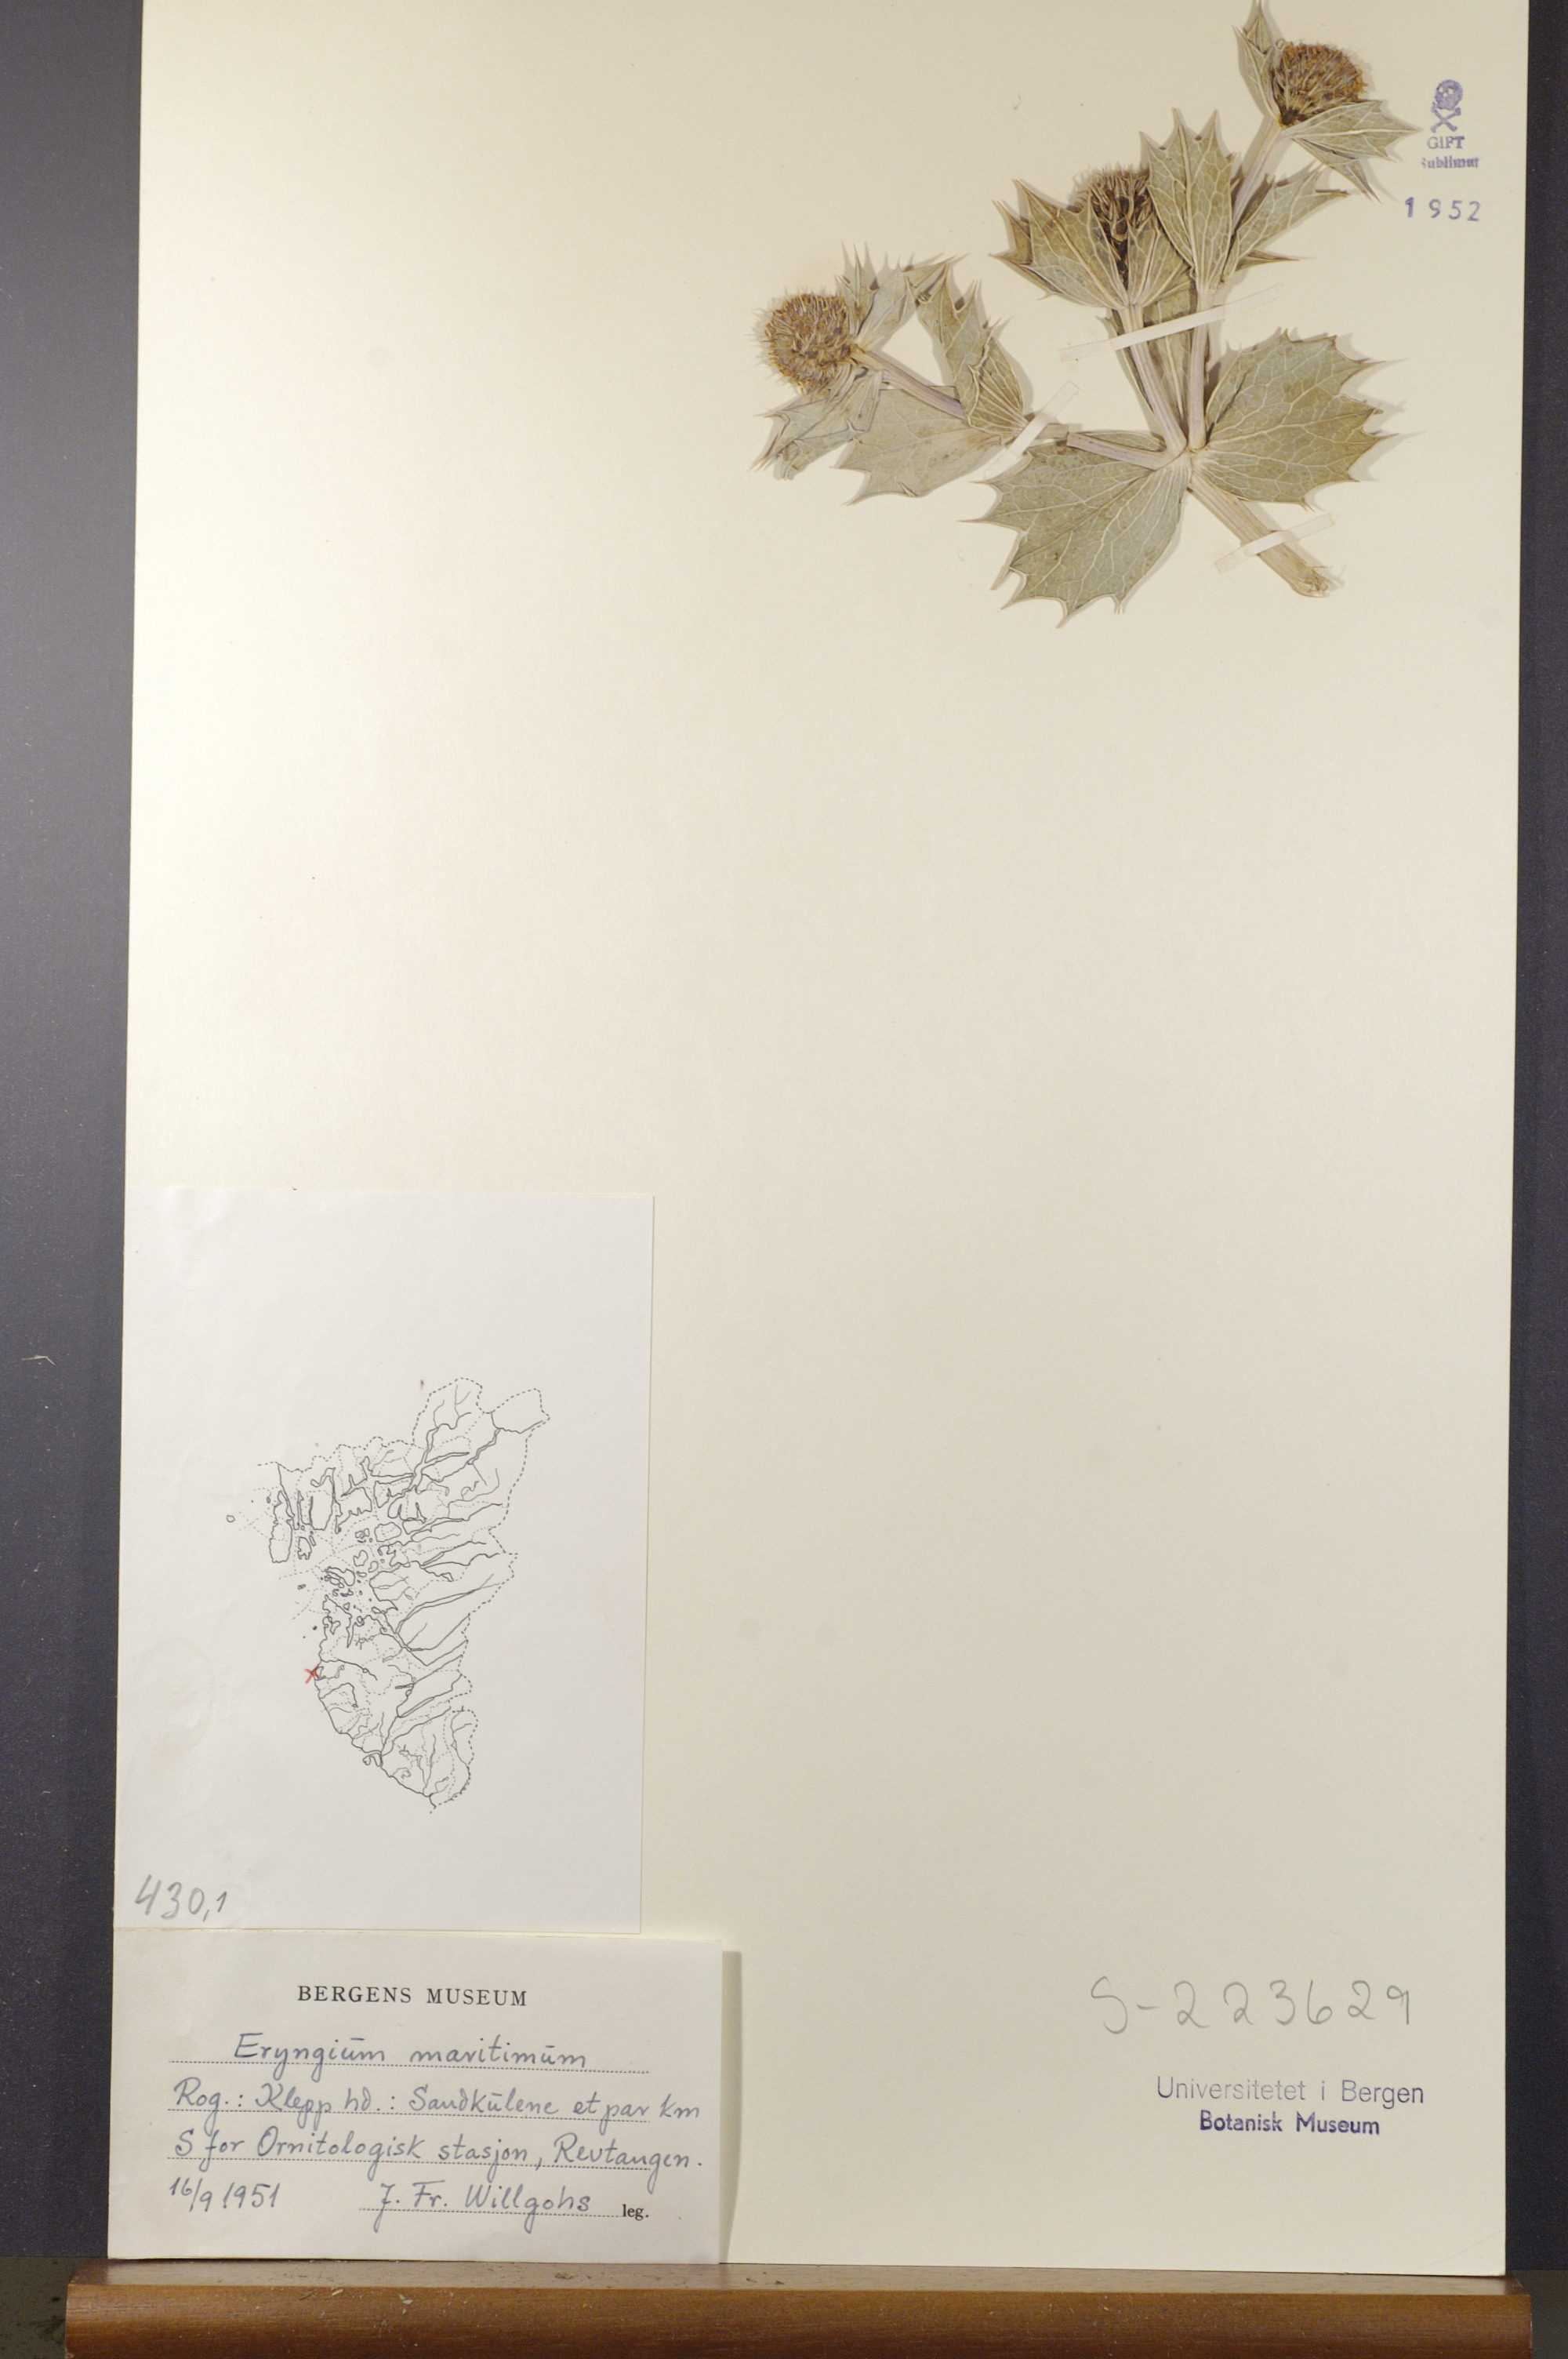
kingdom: Plantae
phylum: Tracheophyta
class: Magnoliopsida
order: Apiales
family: Apiaceae
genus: Eryngium
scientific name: Eryngium maritimum
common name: Sea-holly
